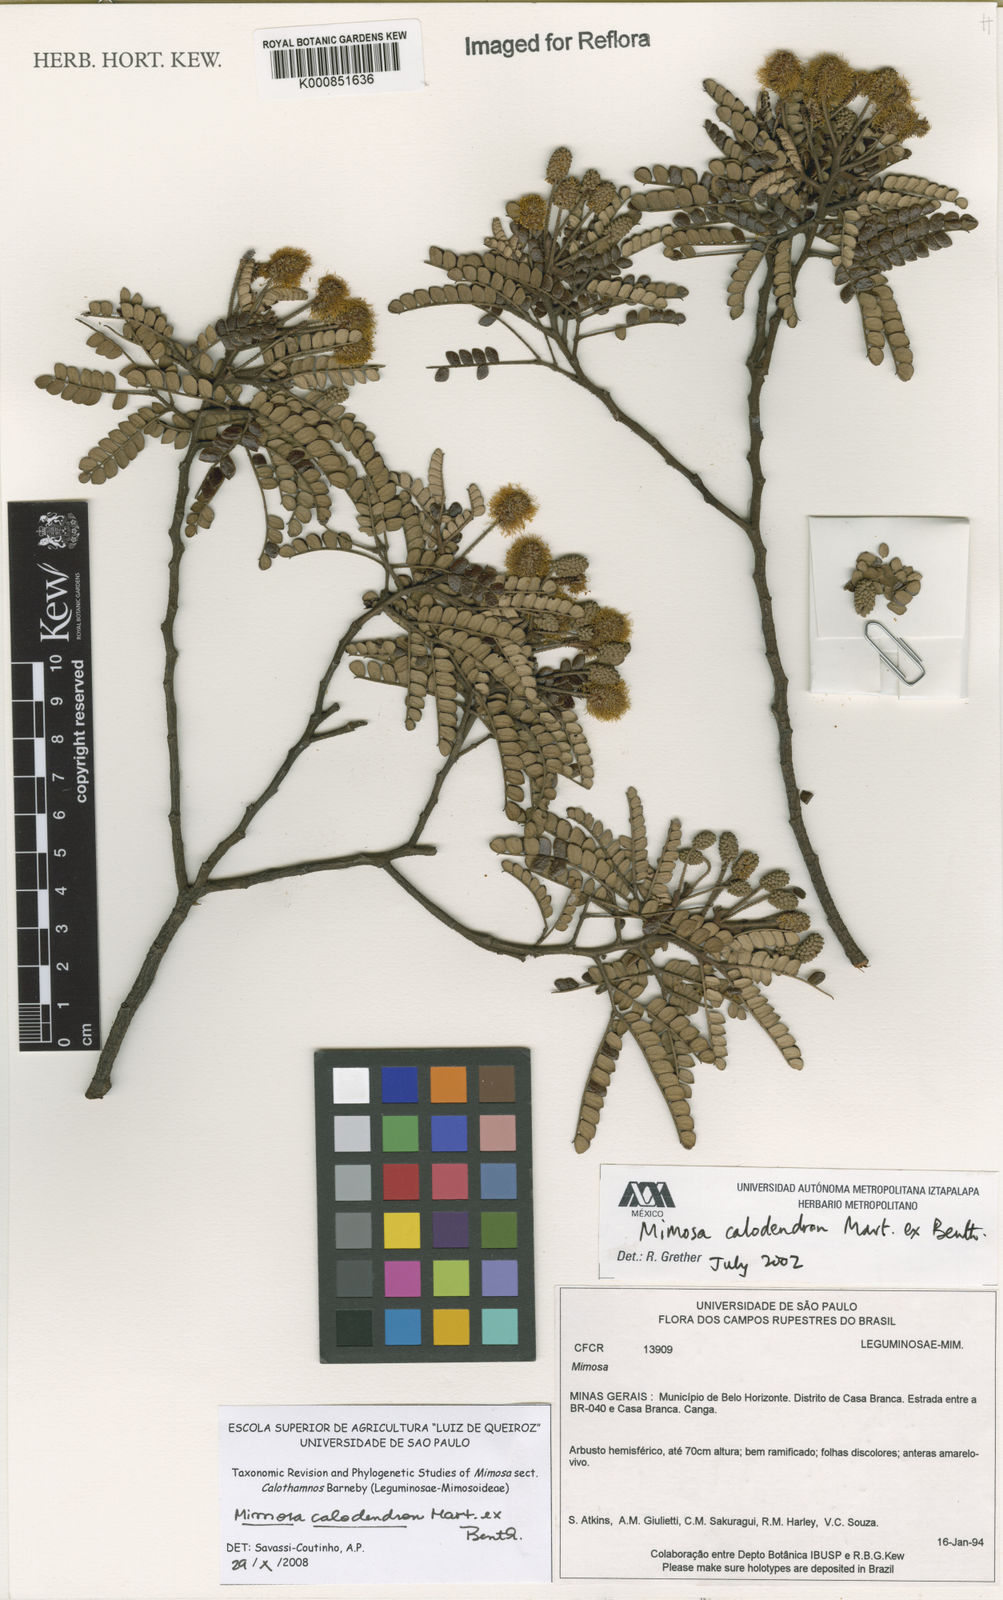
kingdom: Plantae
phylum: Tracheophyta
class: Magnoliopsida
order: Fabales
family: Fabaceae
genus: Mimosa
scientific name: Mimosa calodendron
